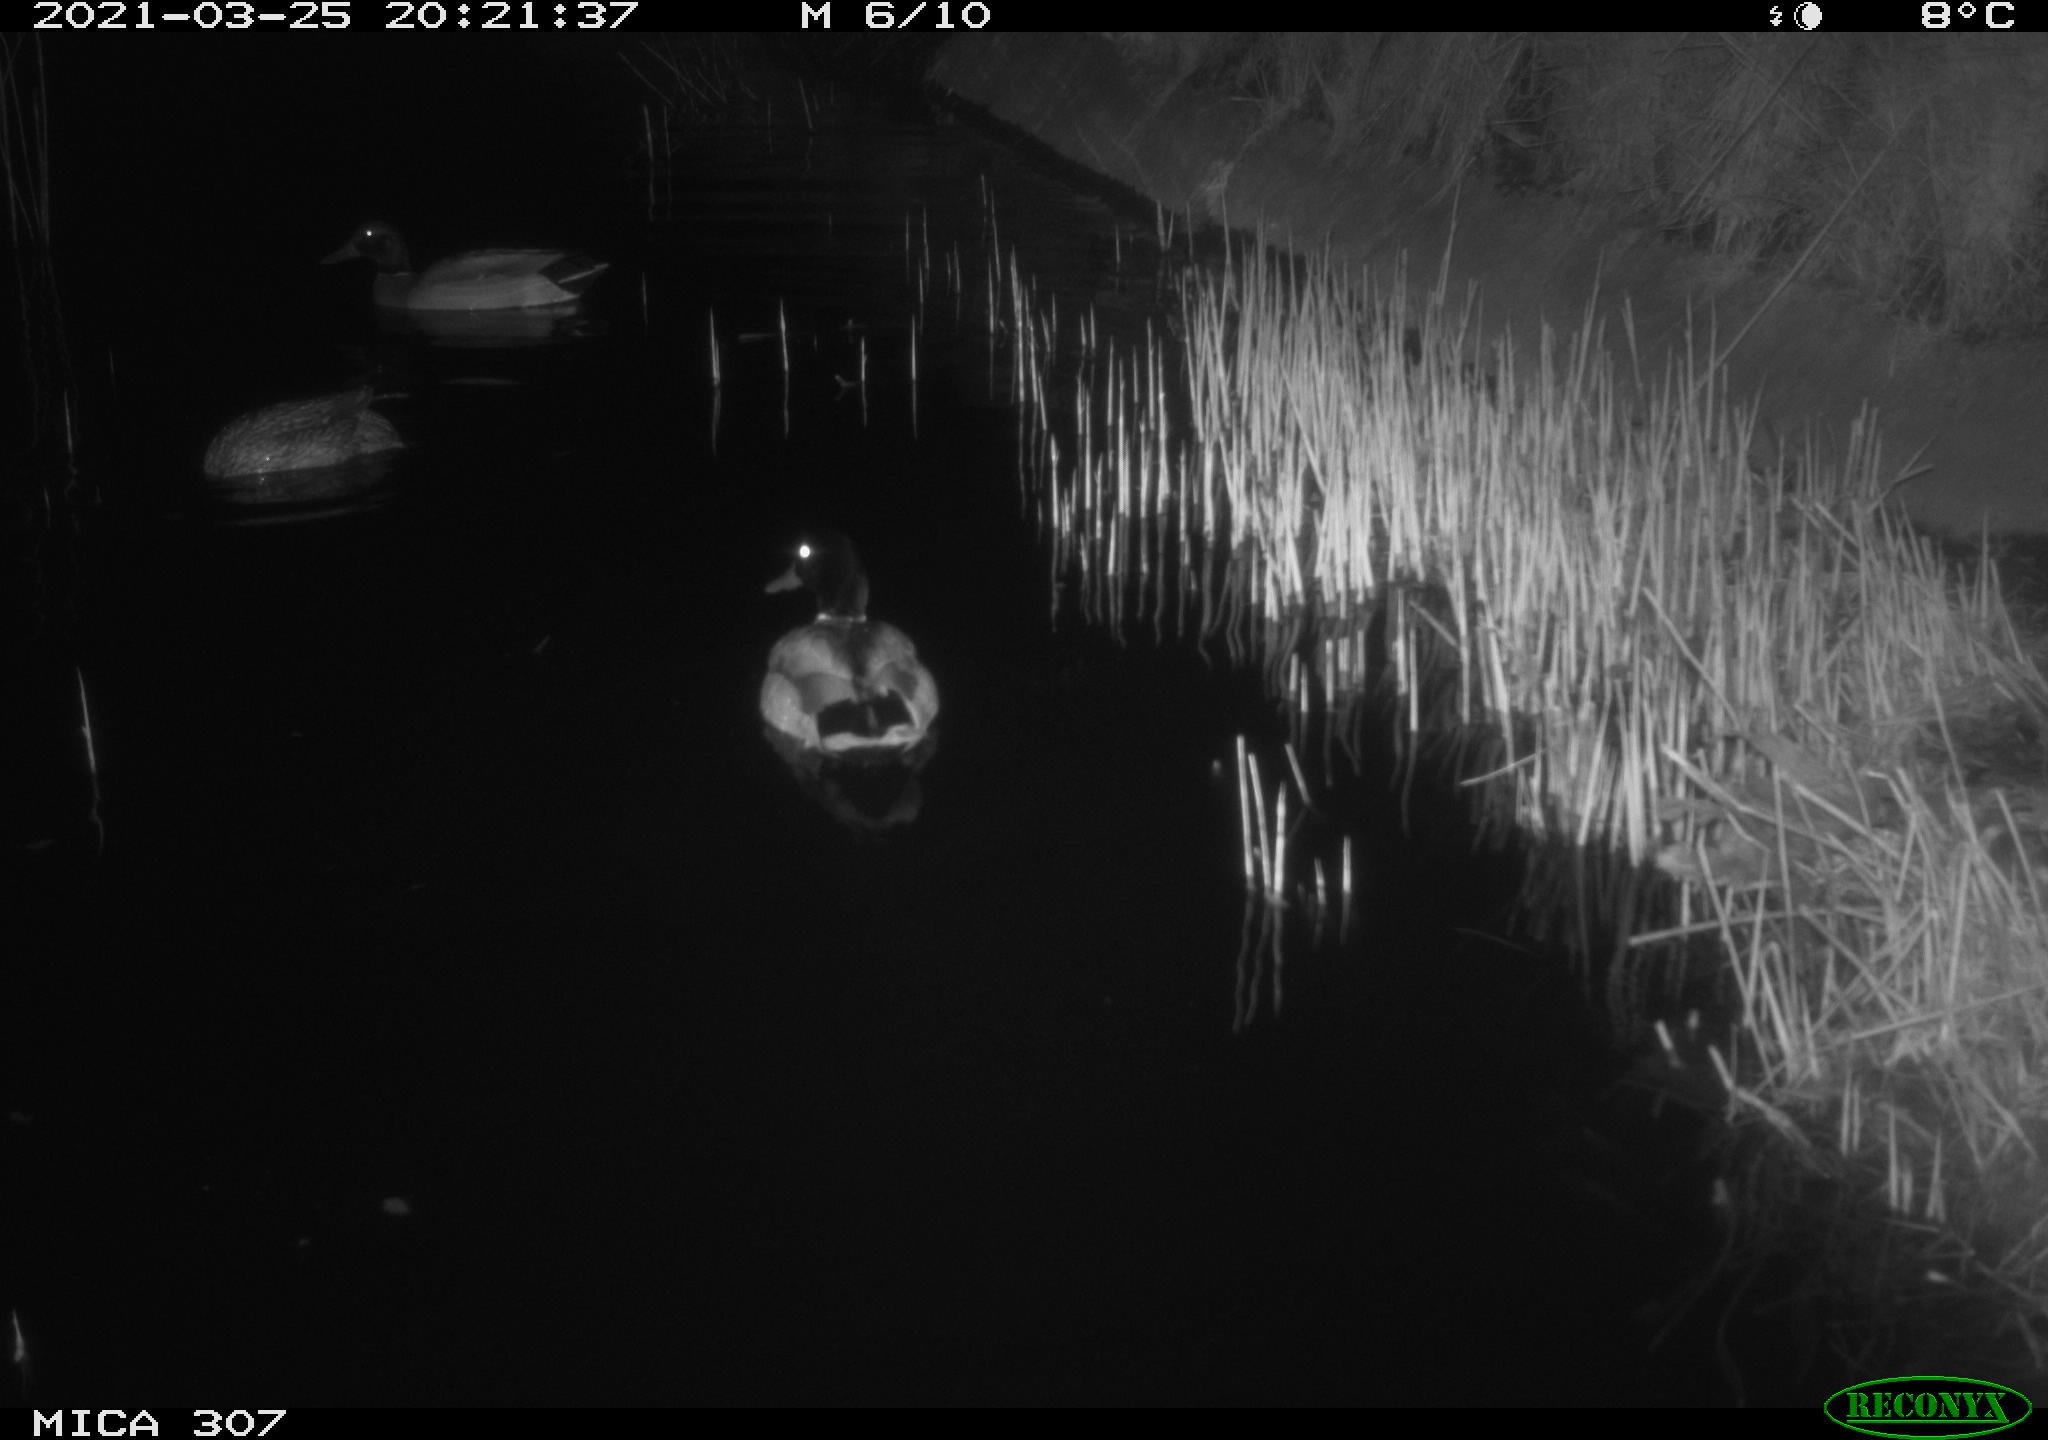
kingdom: Animalia
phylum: Chordata
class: Aves
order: Anseriformes
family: Anatidae
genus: Anas
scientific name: Anas platyrhynchos
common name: Mallard
